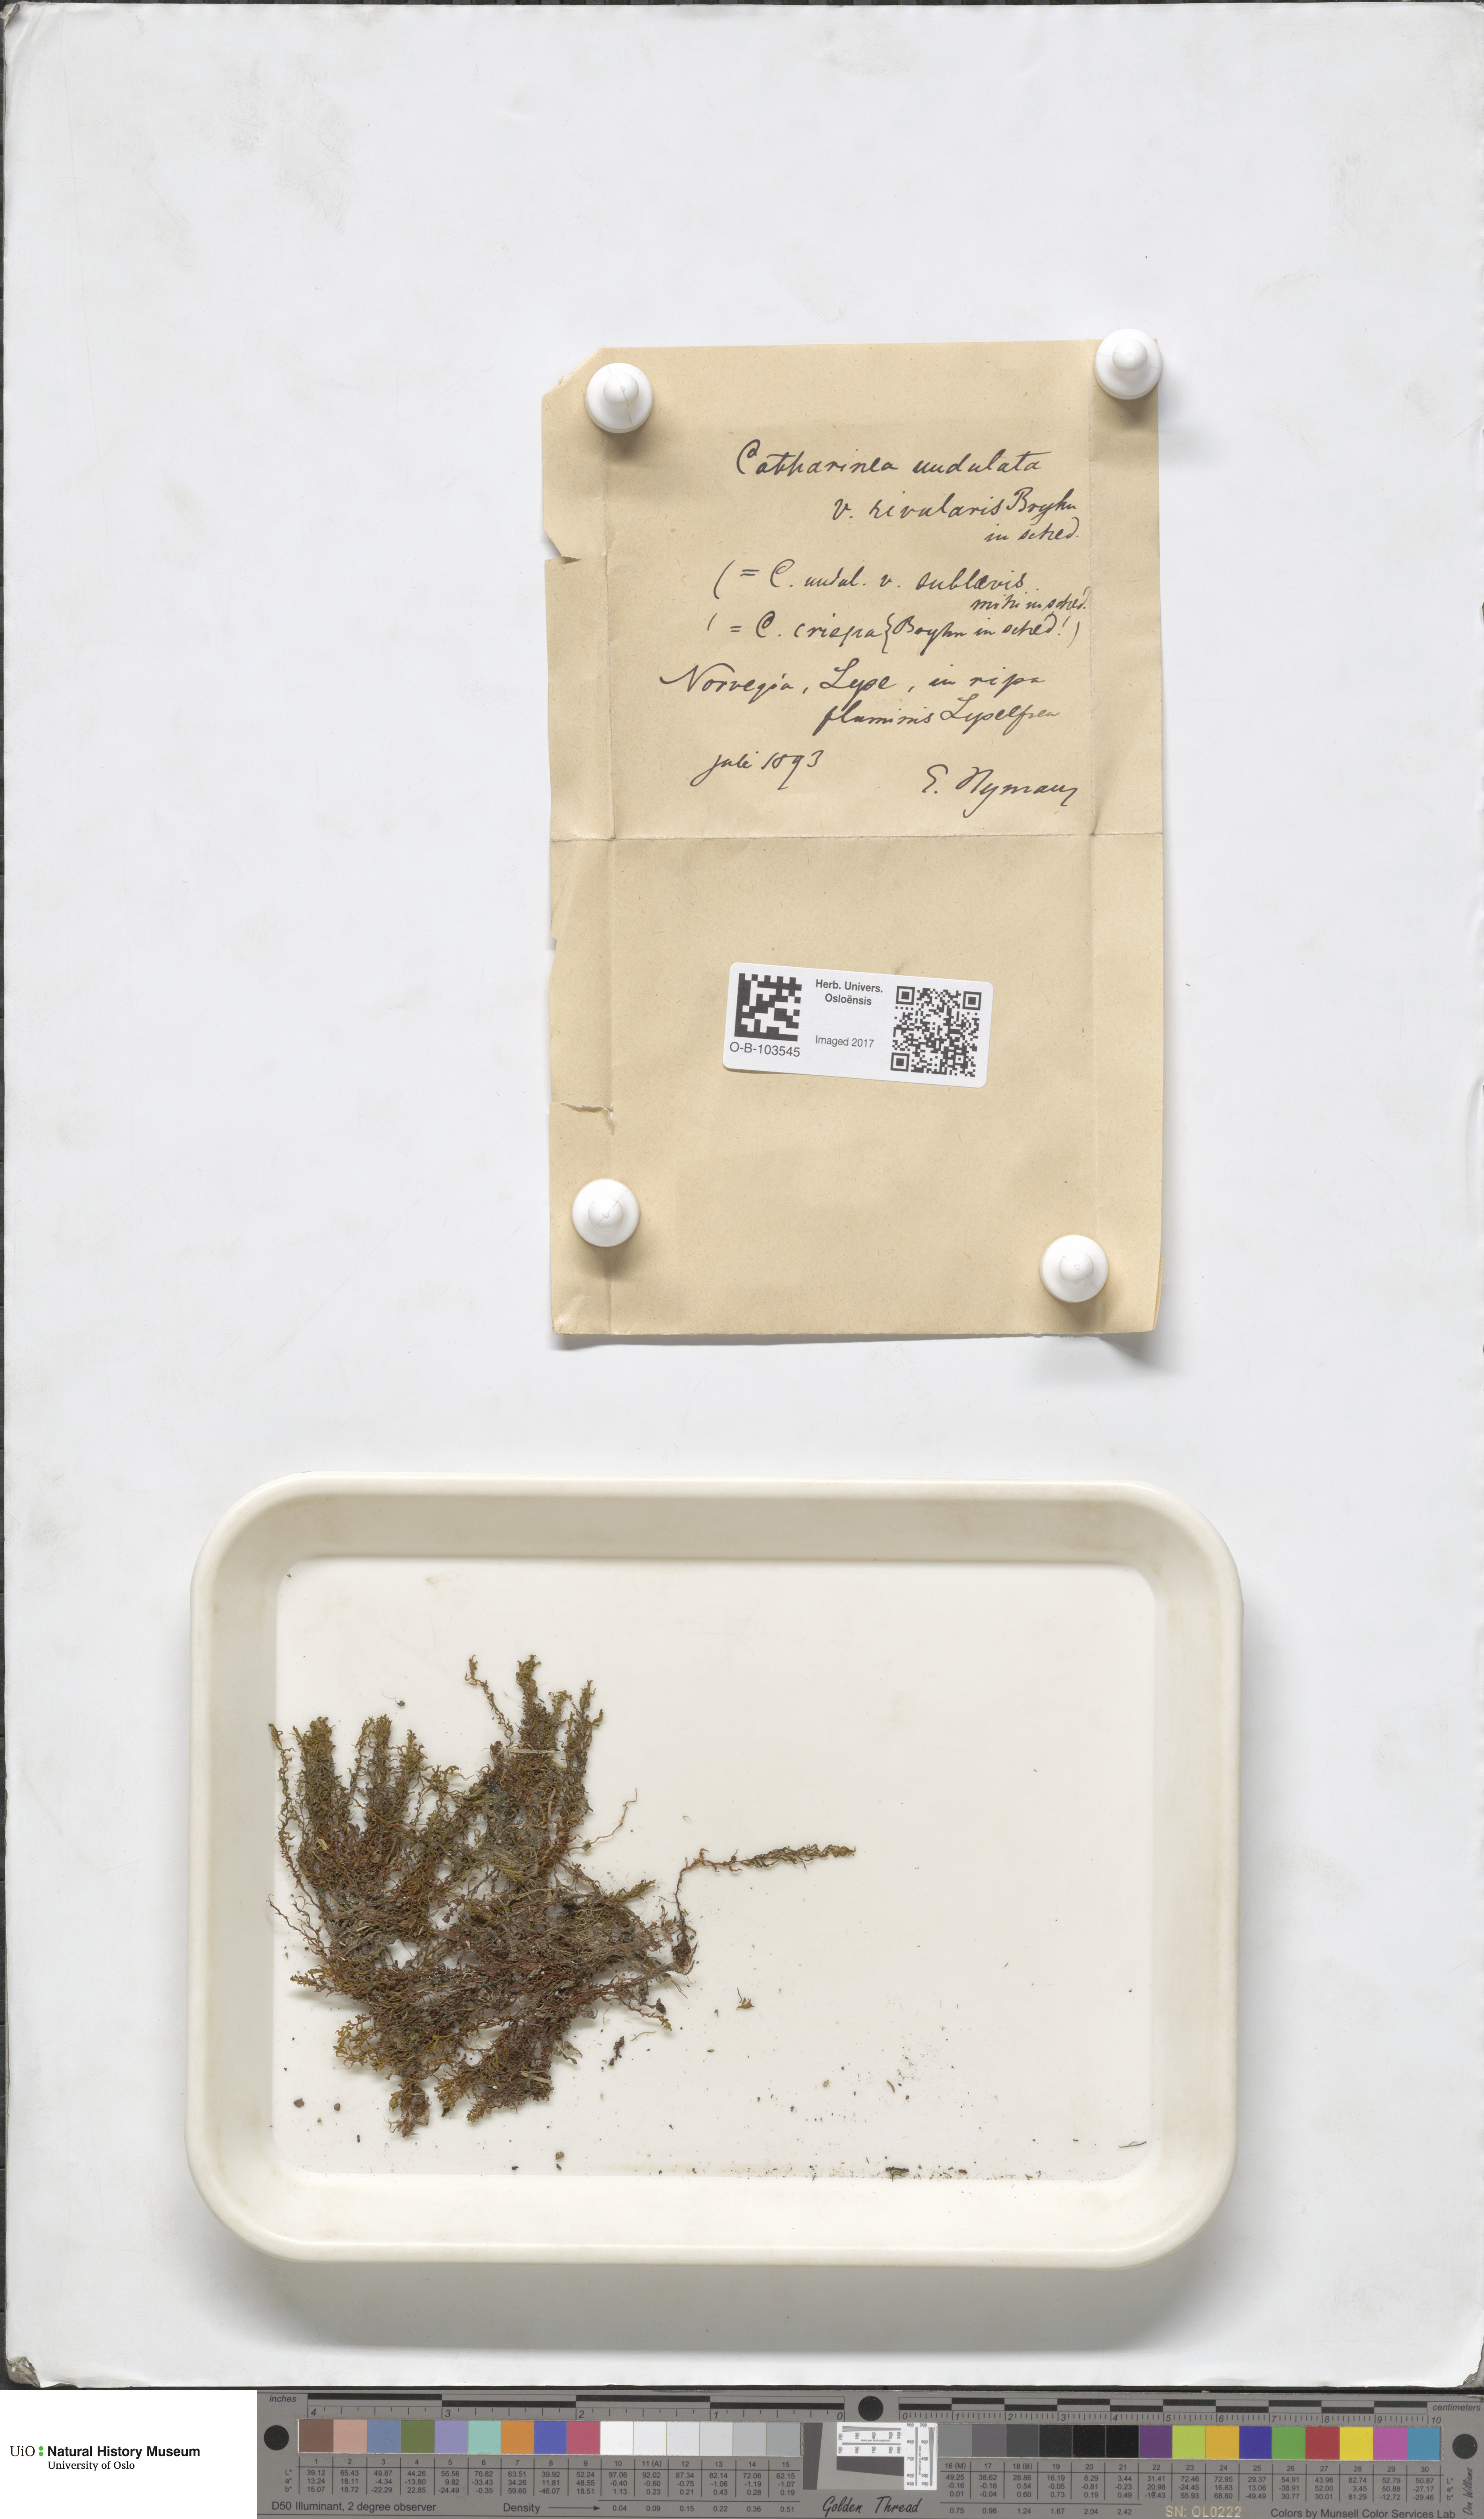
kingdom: Plantae
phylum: Bryophyta
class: Polytrichopsida
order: Polytrichales
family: Polytrichaceae
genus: Atrichum
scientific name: Atrichum undulatum
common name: Common smoothcap
